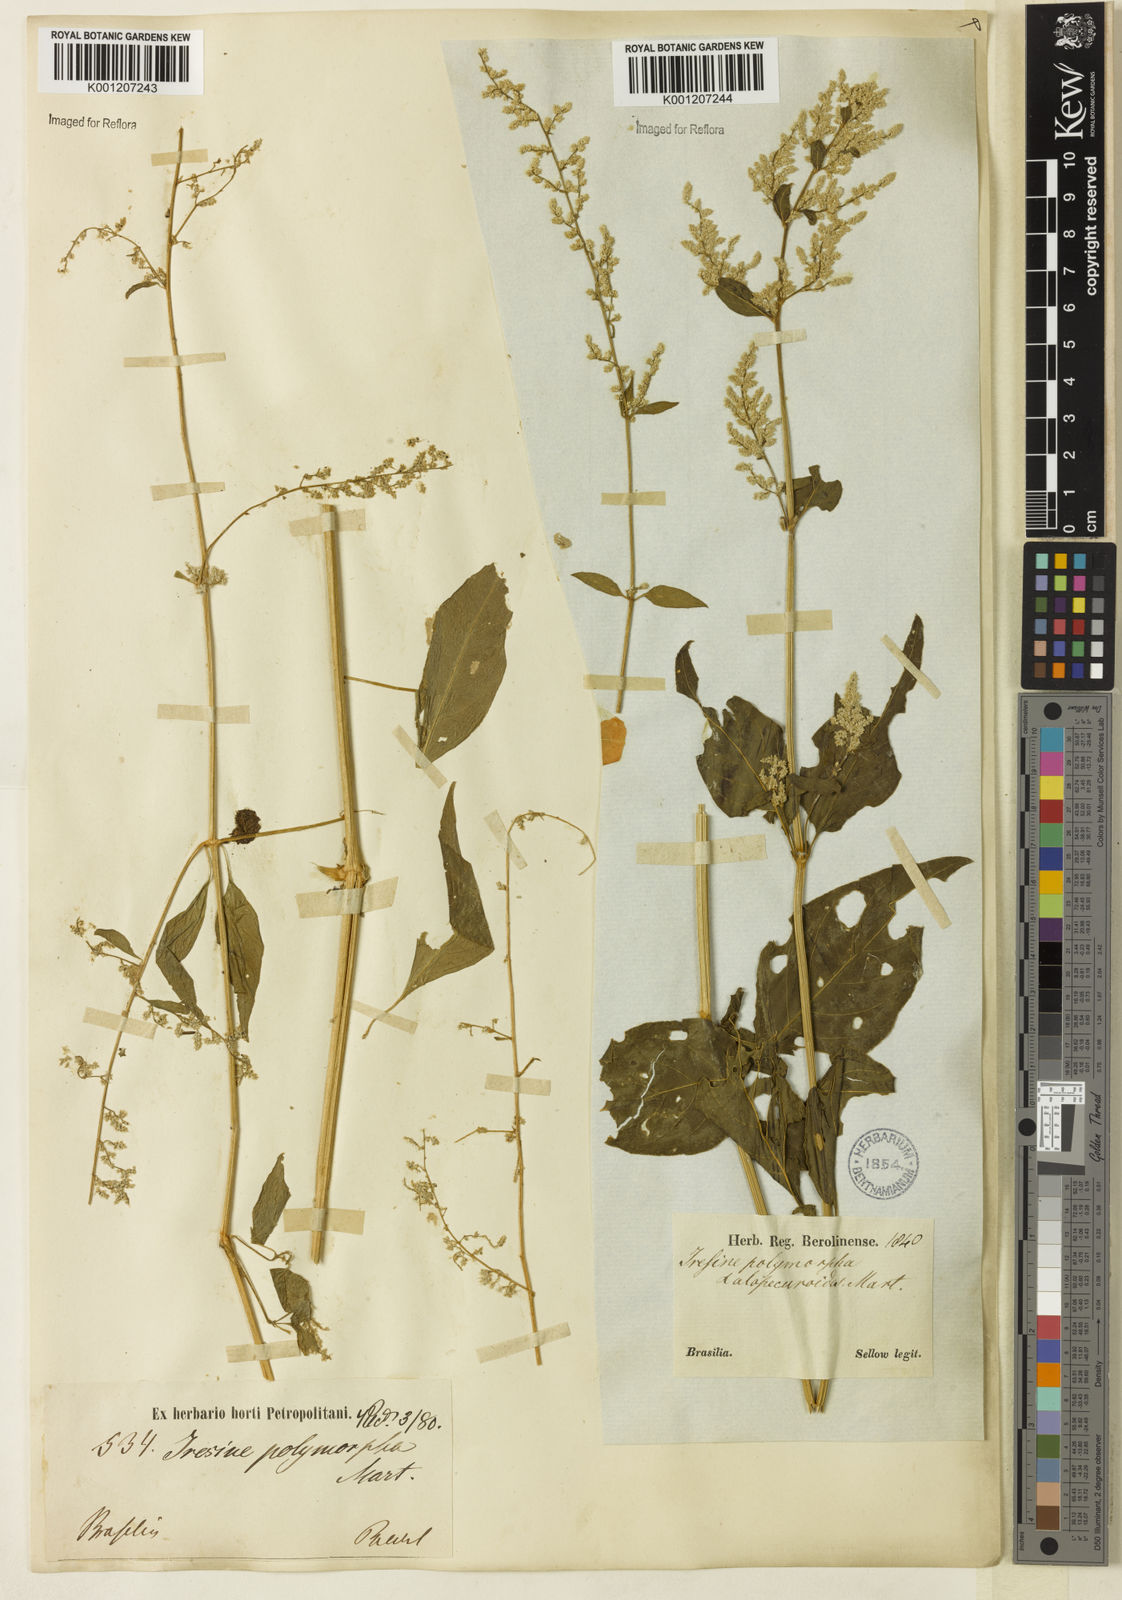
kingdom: Plantae
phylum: Tracheophyta
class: Magnoliopsida
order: Caryophyllales
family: Amaranthaceae
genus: Iresine
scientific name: Iresine rhizomatosa
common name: Juda's-bush
